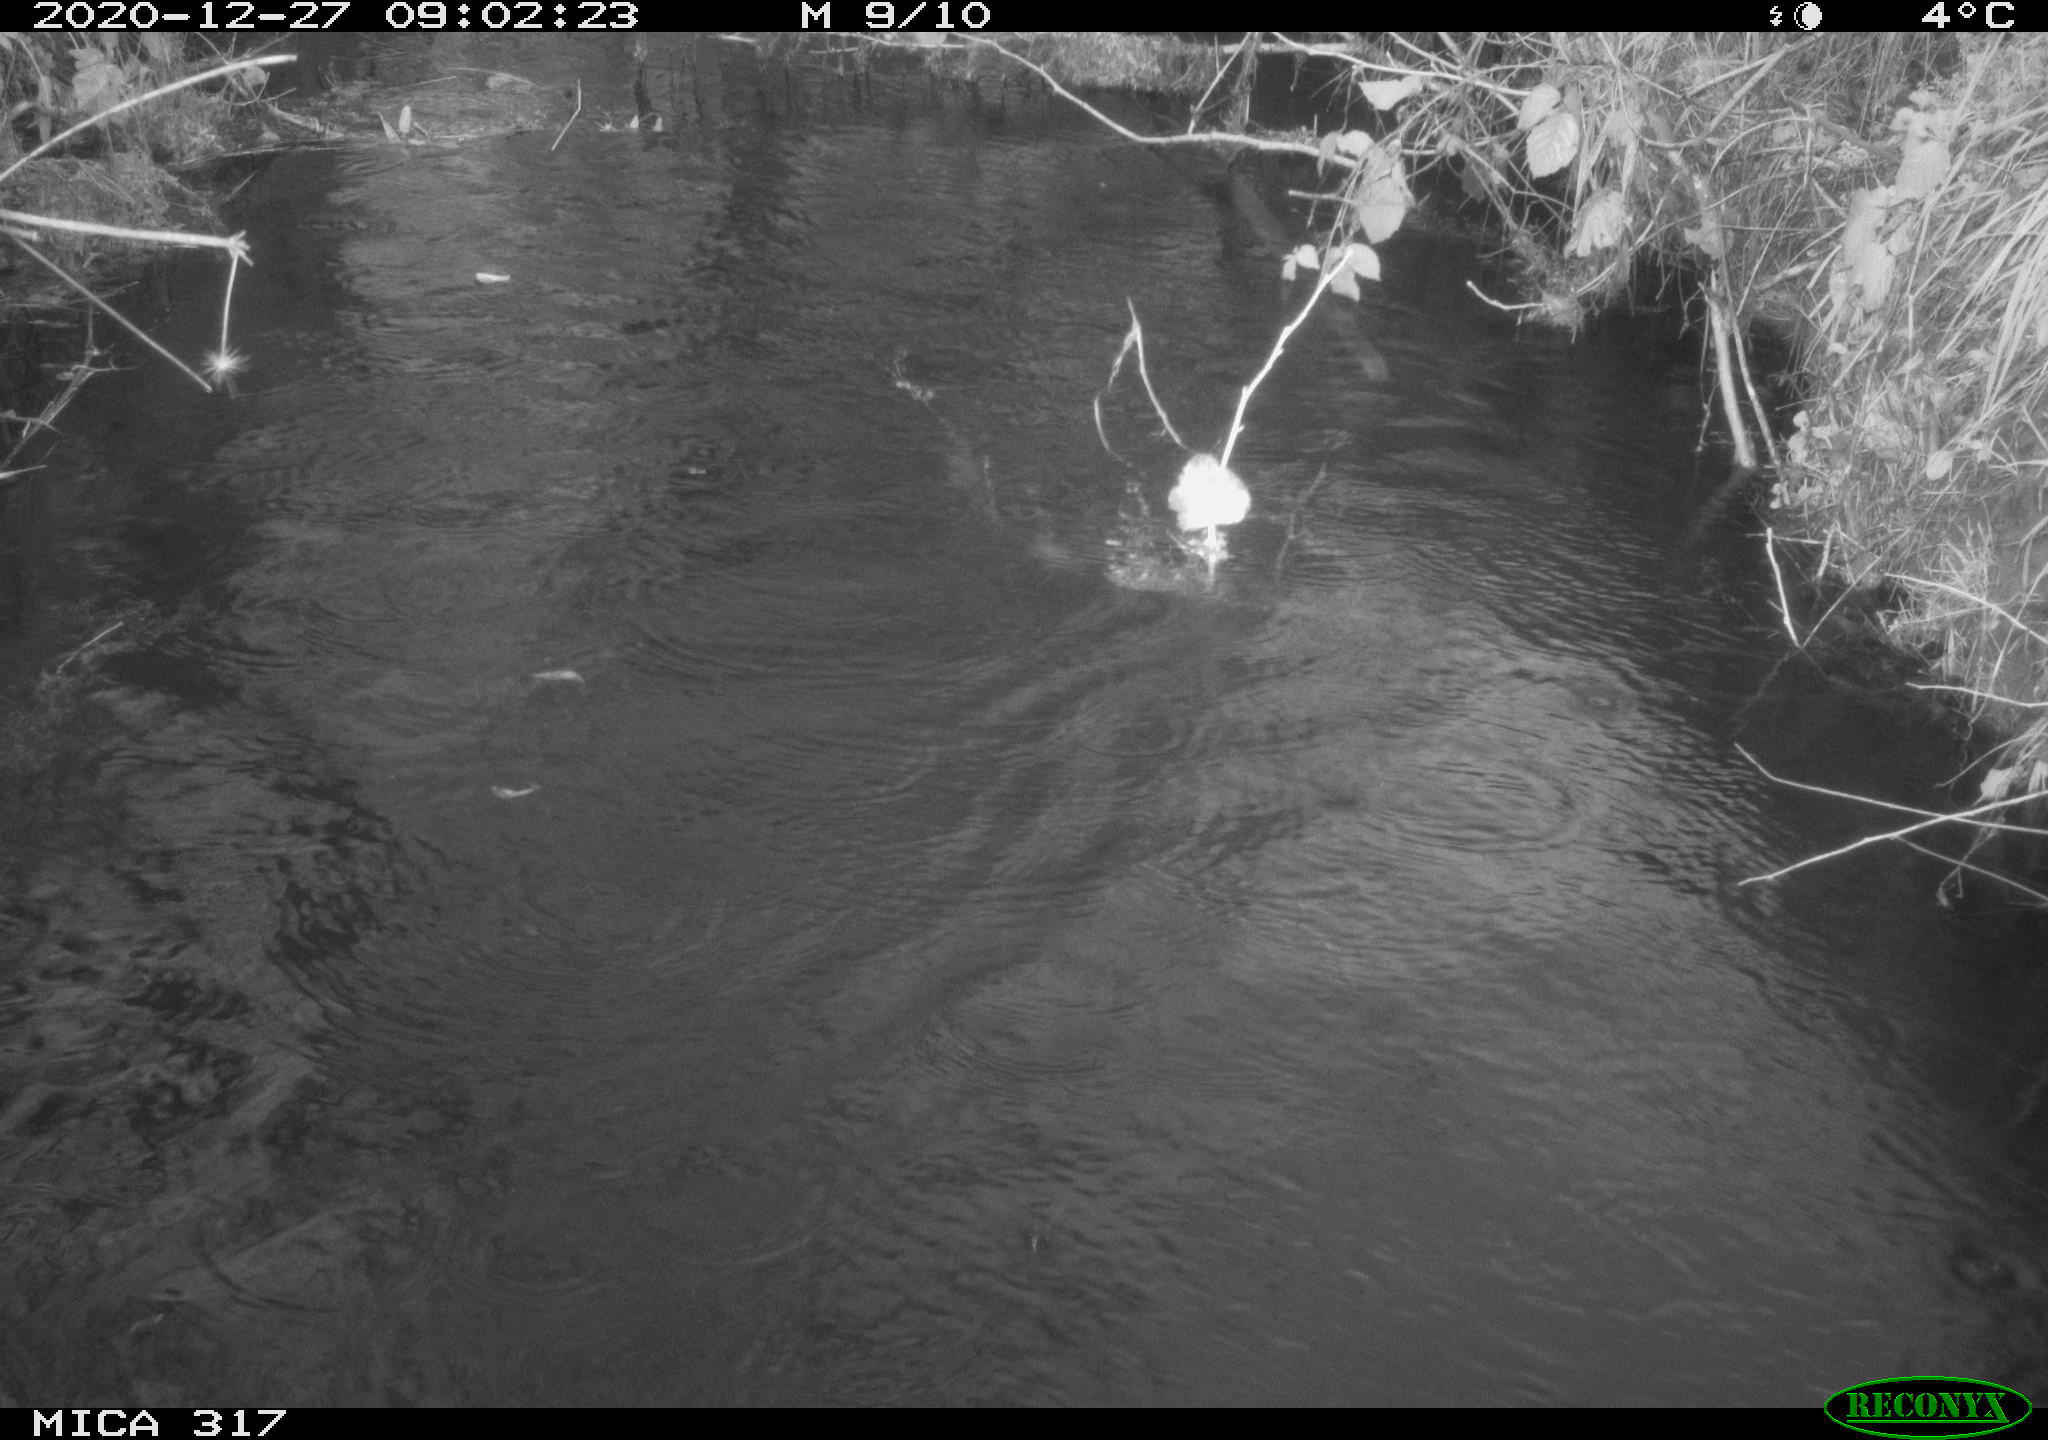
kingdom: Animalia
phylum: Chordata
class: Aves
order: Gruiformes
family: Rallidae
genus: Fulica
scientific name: Fulica atra
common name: Eurasian coot
